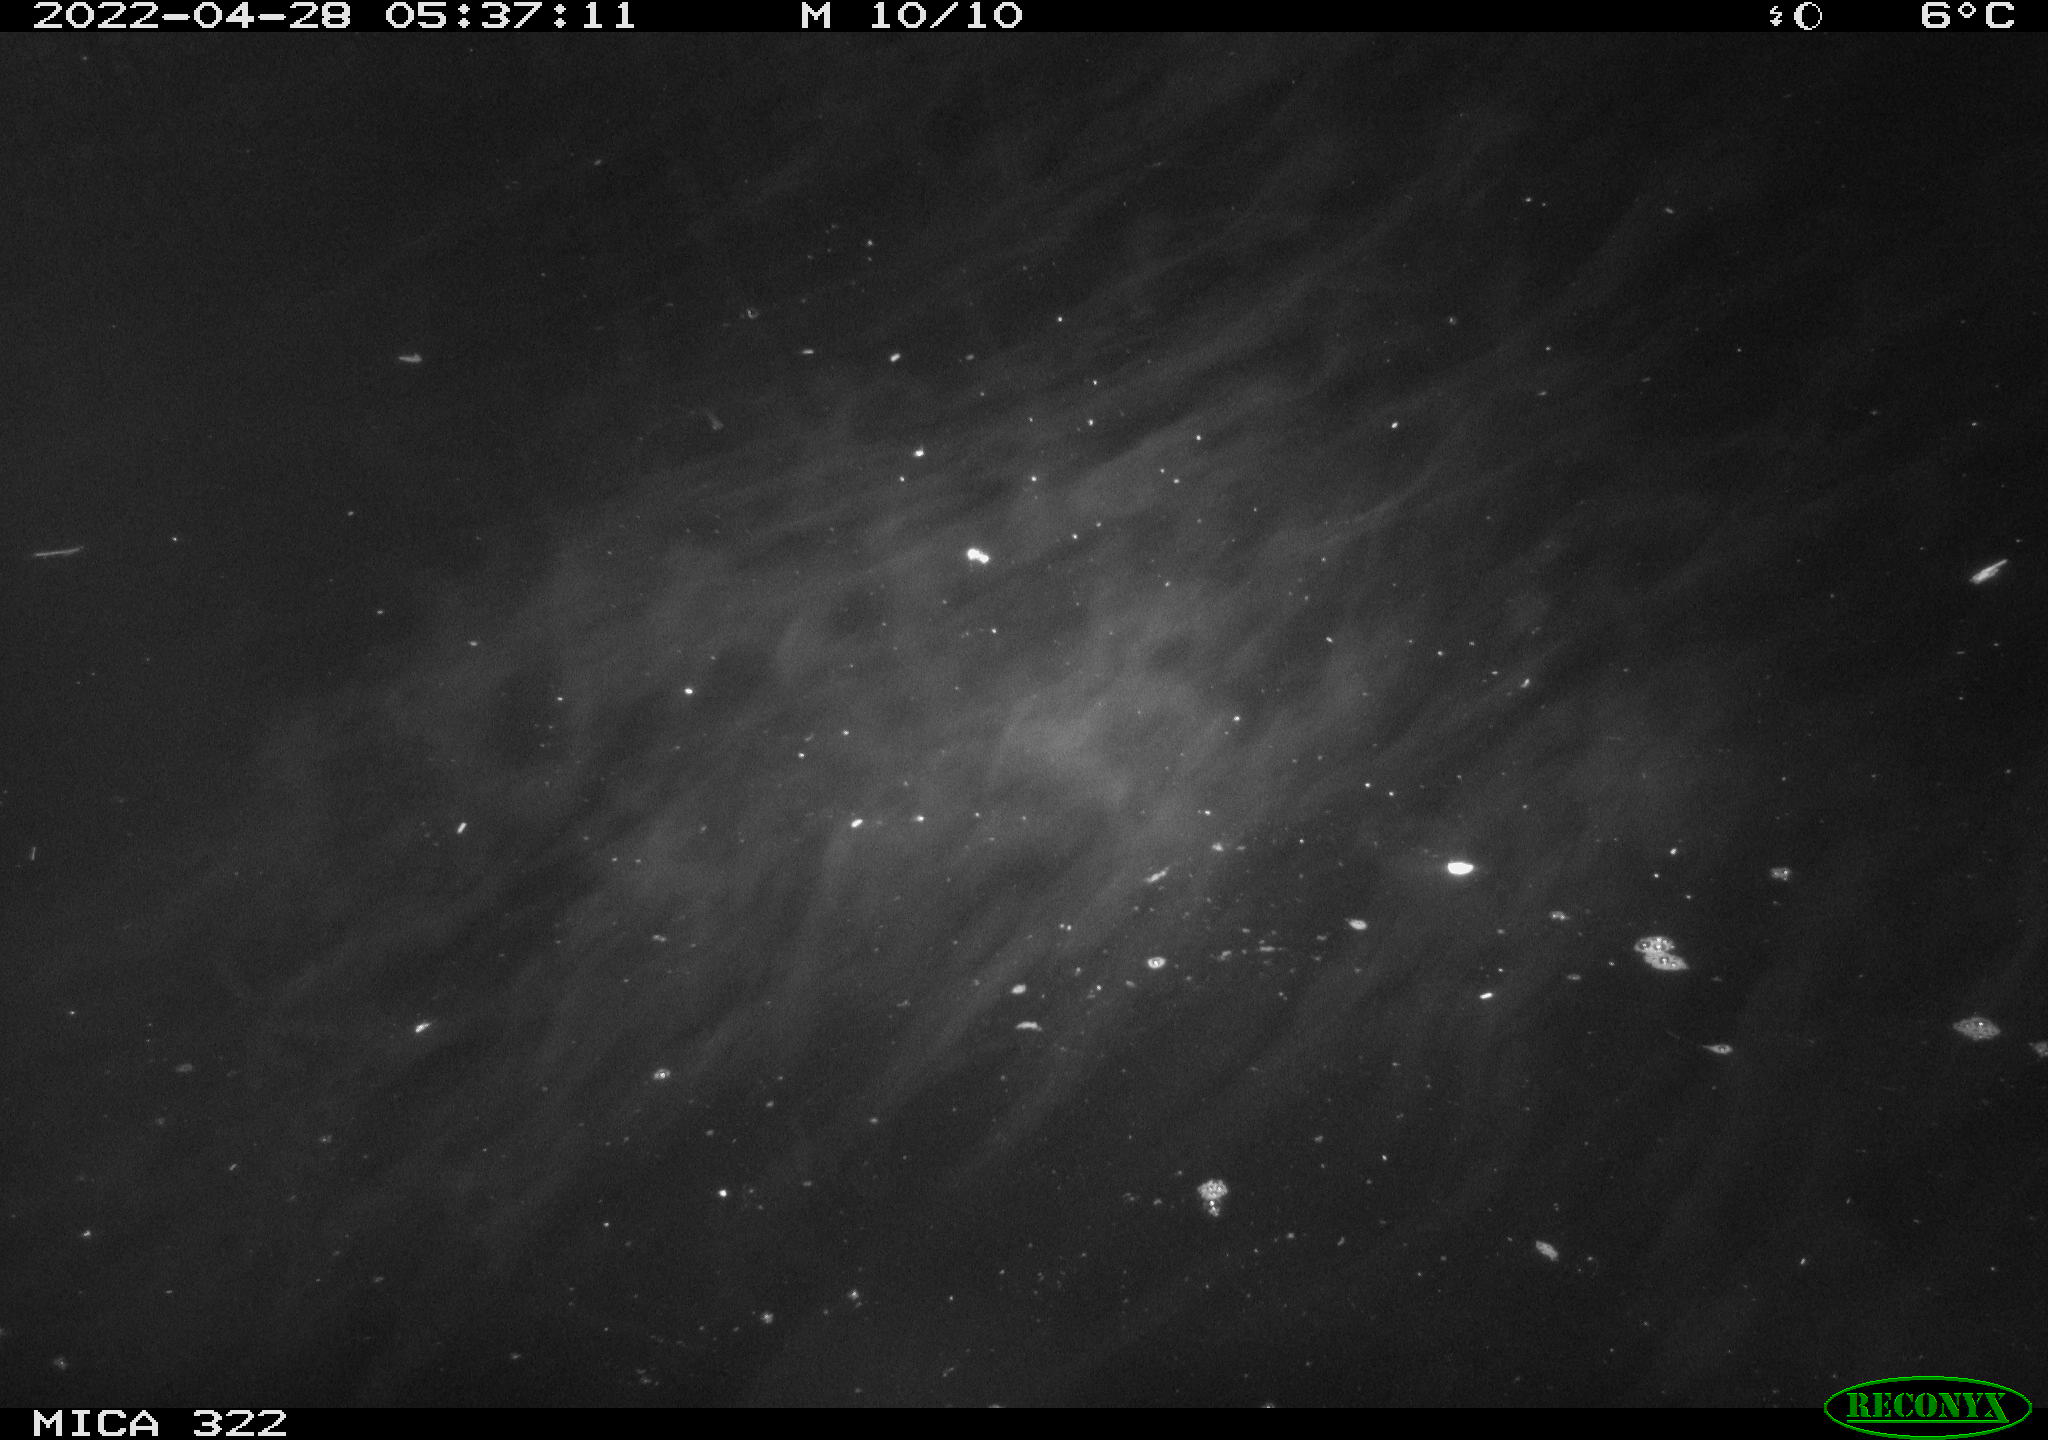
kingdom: Animalia
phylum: Chordata
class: Aves
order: Anseriformes
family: Anatidae
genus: Anas
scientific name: Anas platyrhynchos
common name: Mallard
